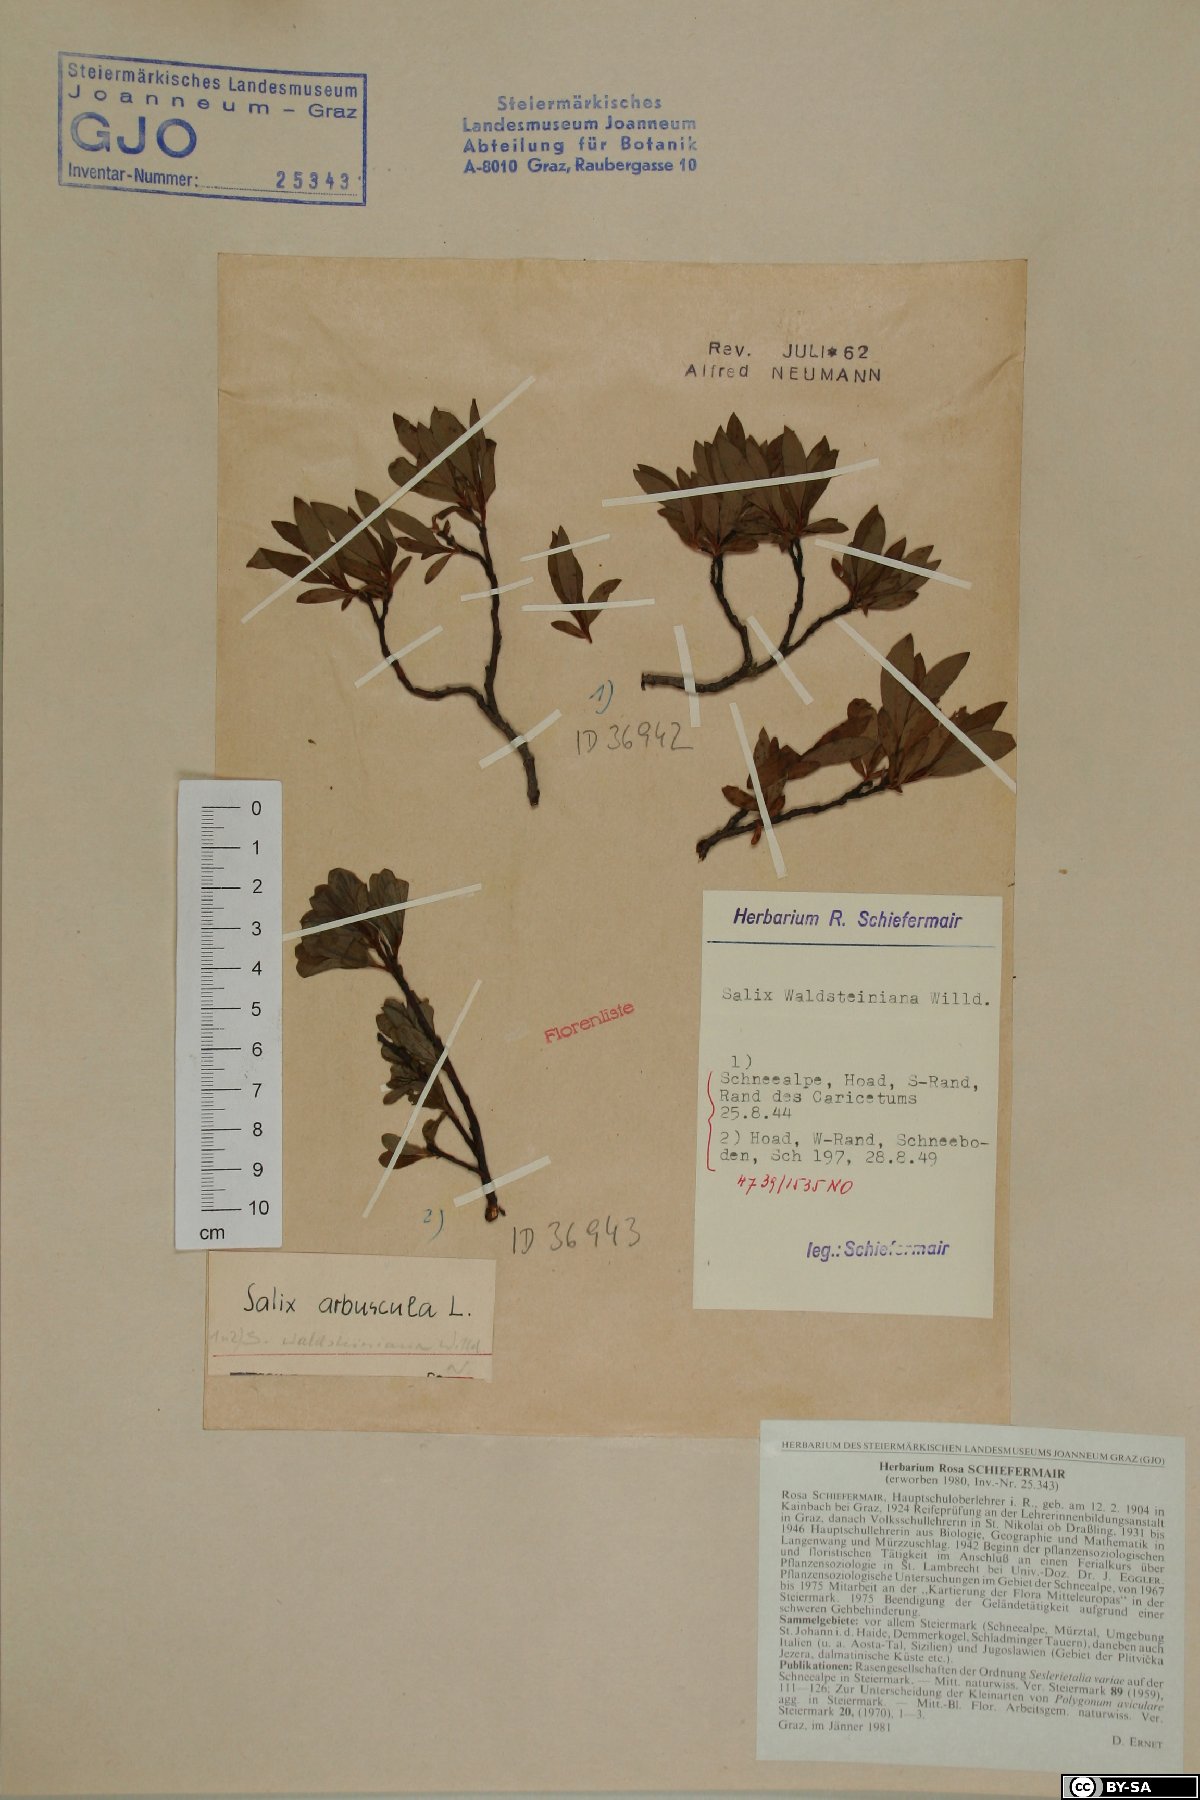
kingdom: Plantae
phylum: Tracheophyta
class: Magnoliopsida
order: Malpighiales
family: Salicaceae
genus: Salix
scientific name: Salix waldsteiniana
